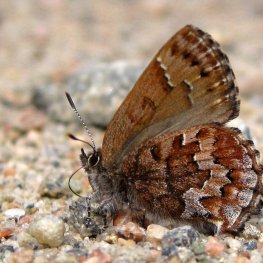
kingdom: Animalia
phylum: Arthropoda
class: Insecta
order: Lepidoptera
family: Lycaenidae
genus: Incisalia
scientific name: Incisalia niphon
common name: Eastern Pine Elfin
